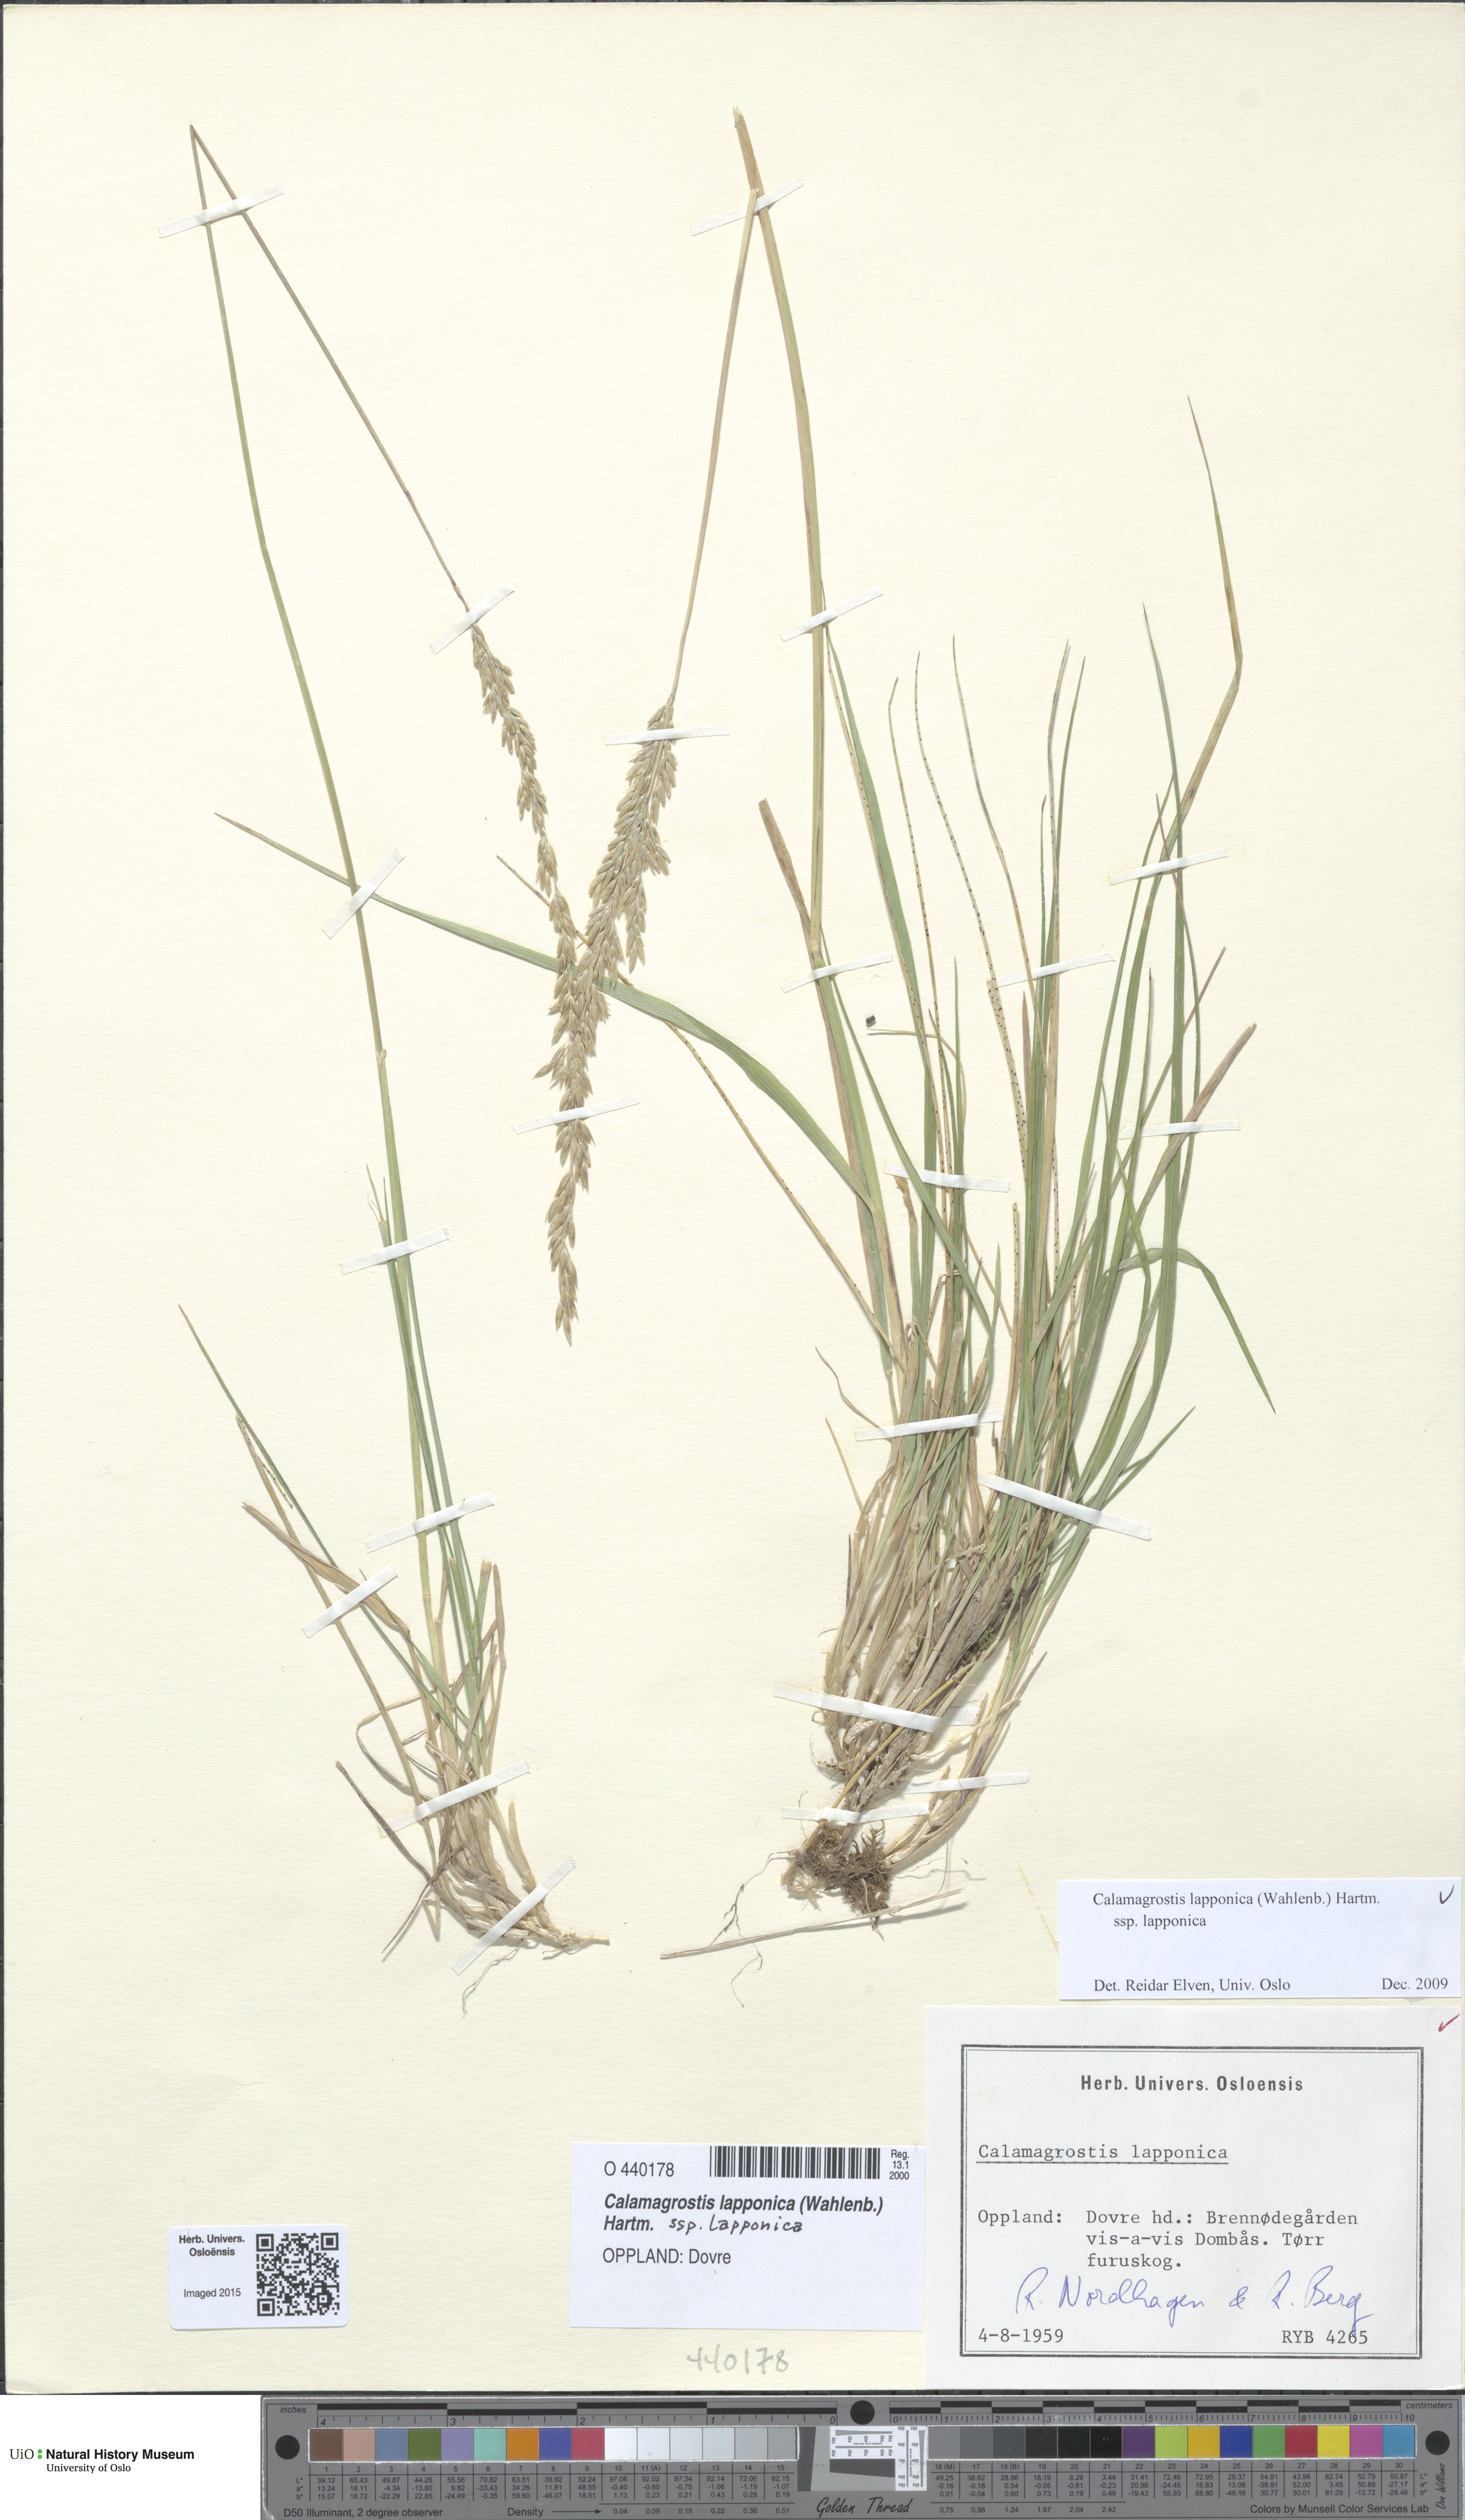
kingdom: Plantae
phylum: Tracheophyta
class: Liliopsida
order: Poales
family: Poaceae
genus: Calamagrostis
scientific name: Calamagrostis lapponica
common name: Lapland reedgrass
